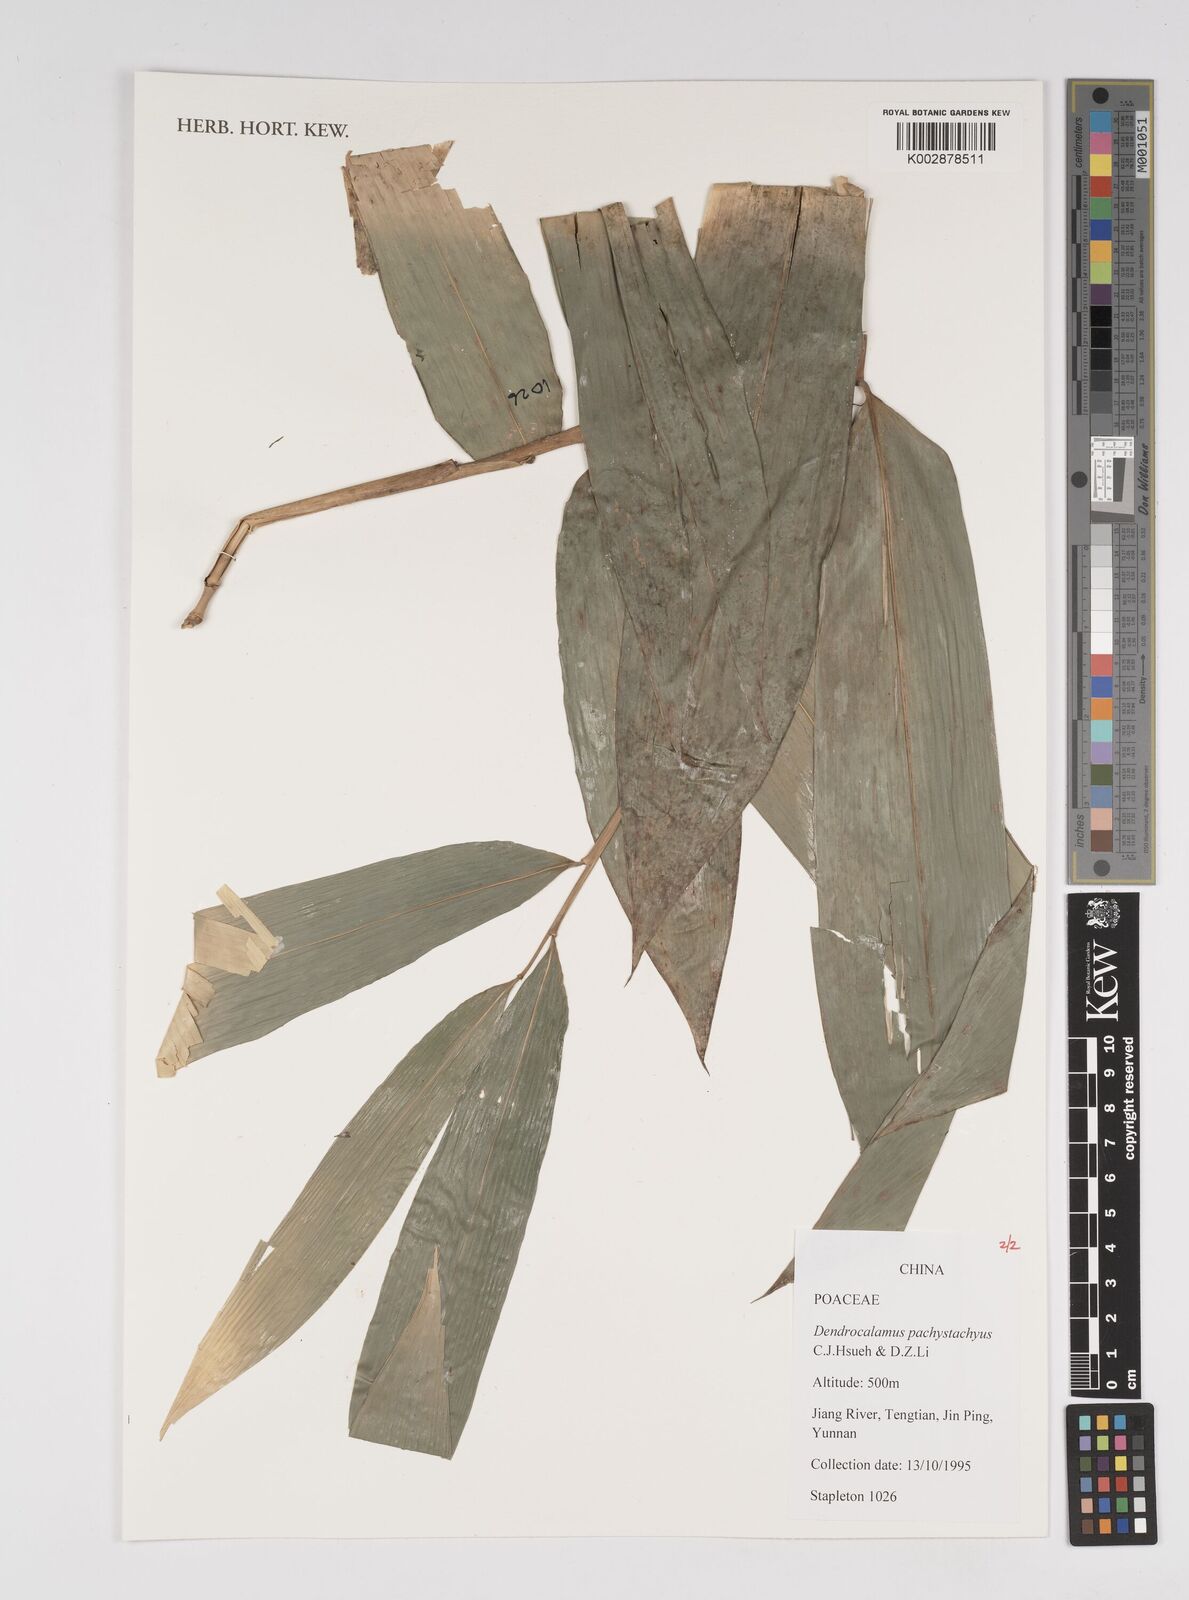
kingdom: Plantae
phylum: Tracheophyta
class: Liliopsida
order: Poales
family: Poaceae
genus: Dendrocalamus
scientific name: Dendrocalamus pachystachyus
